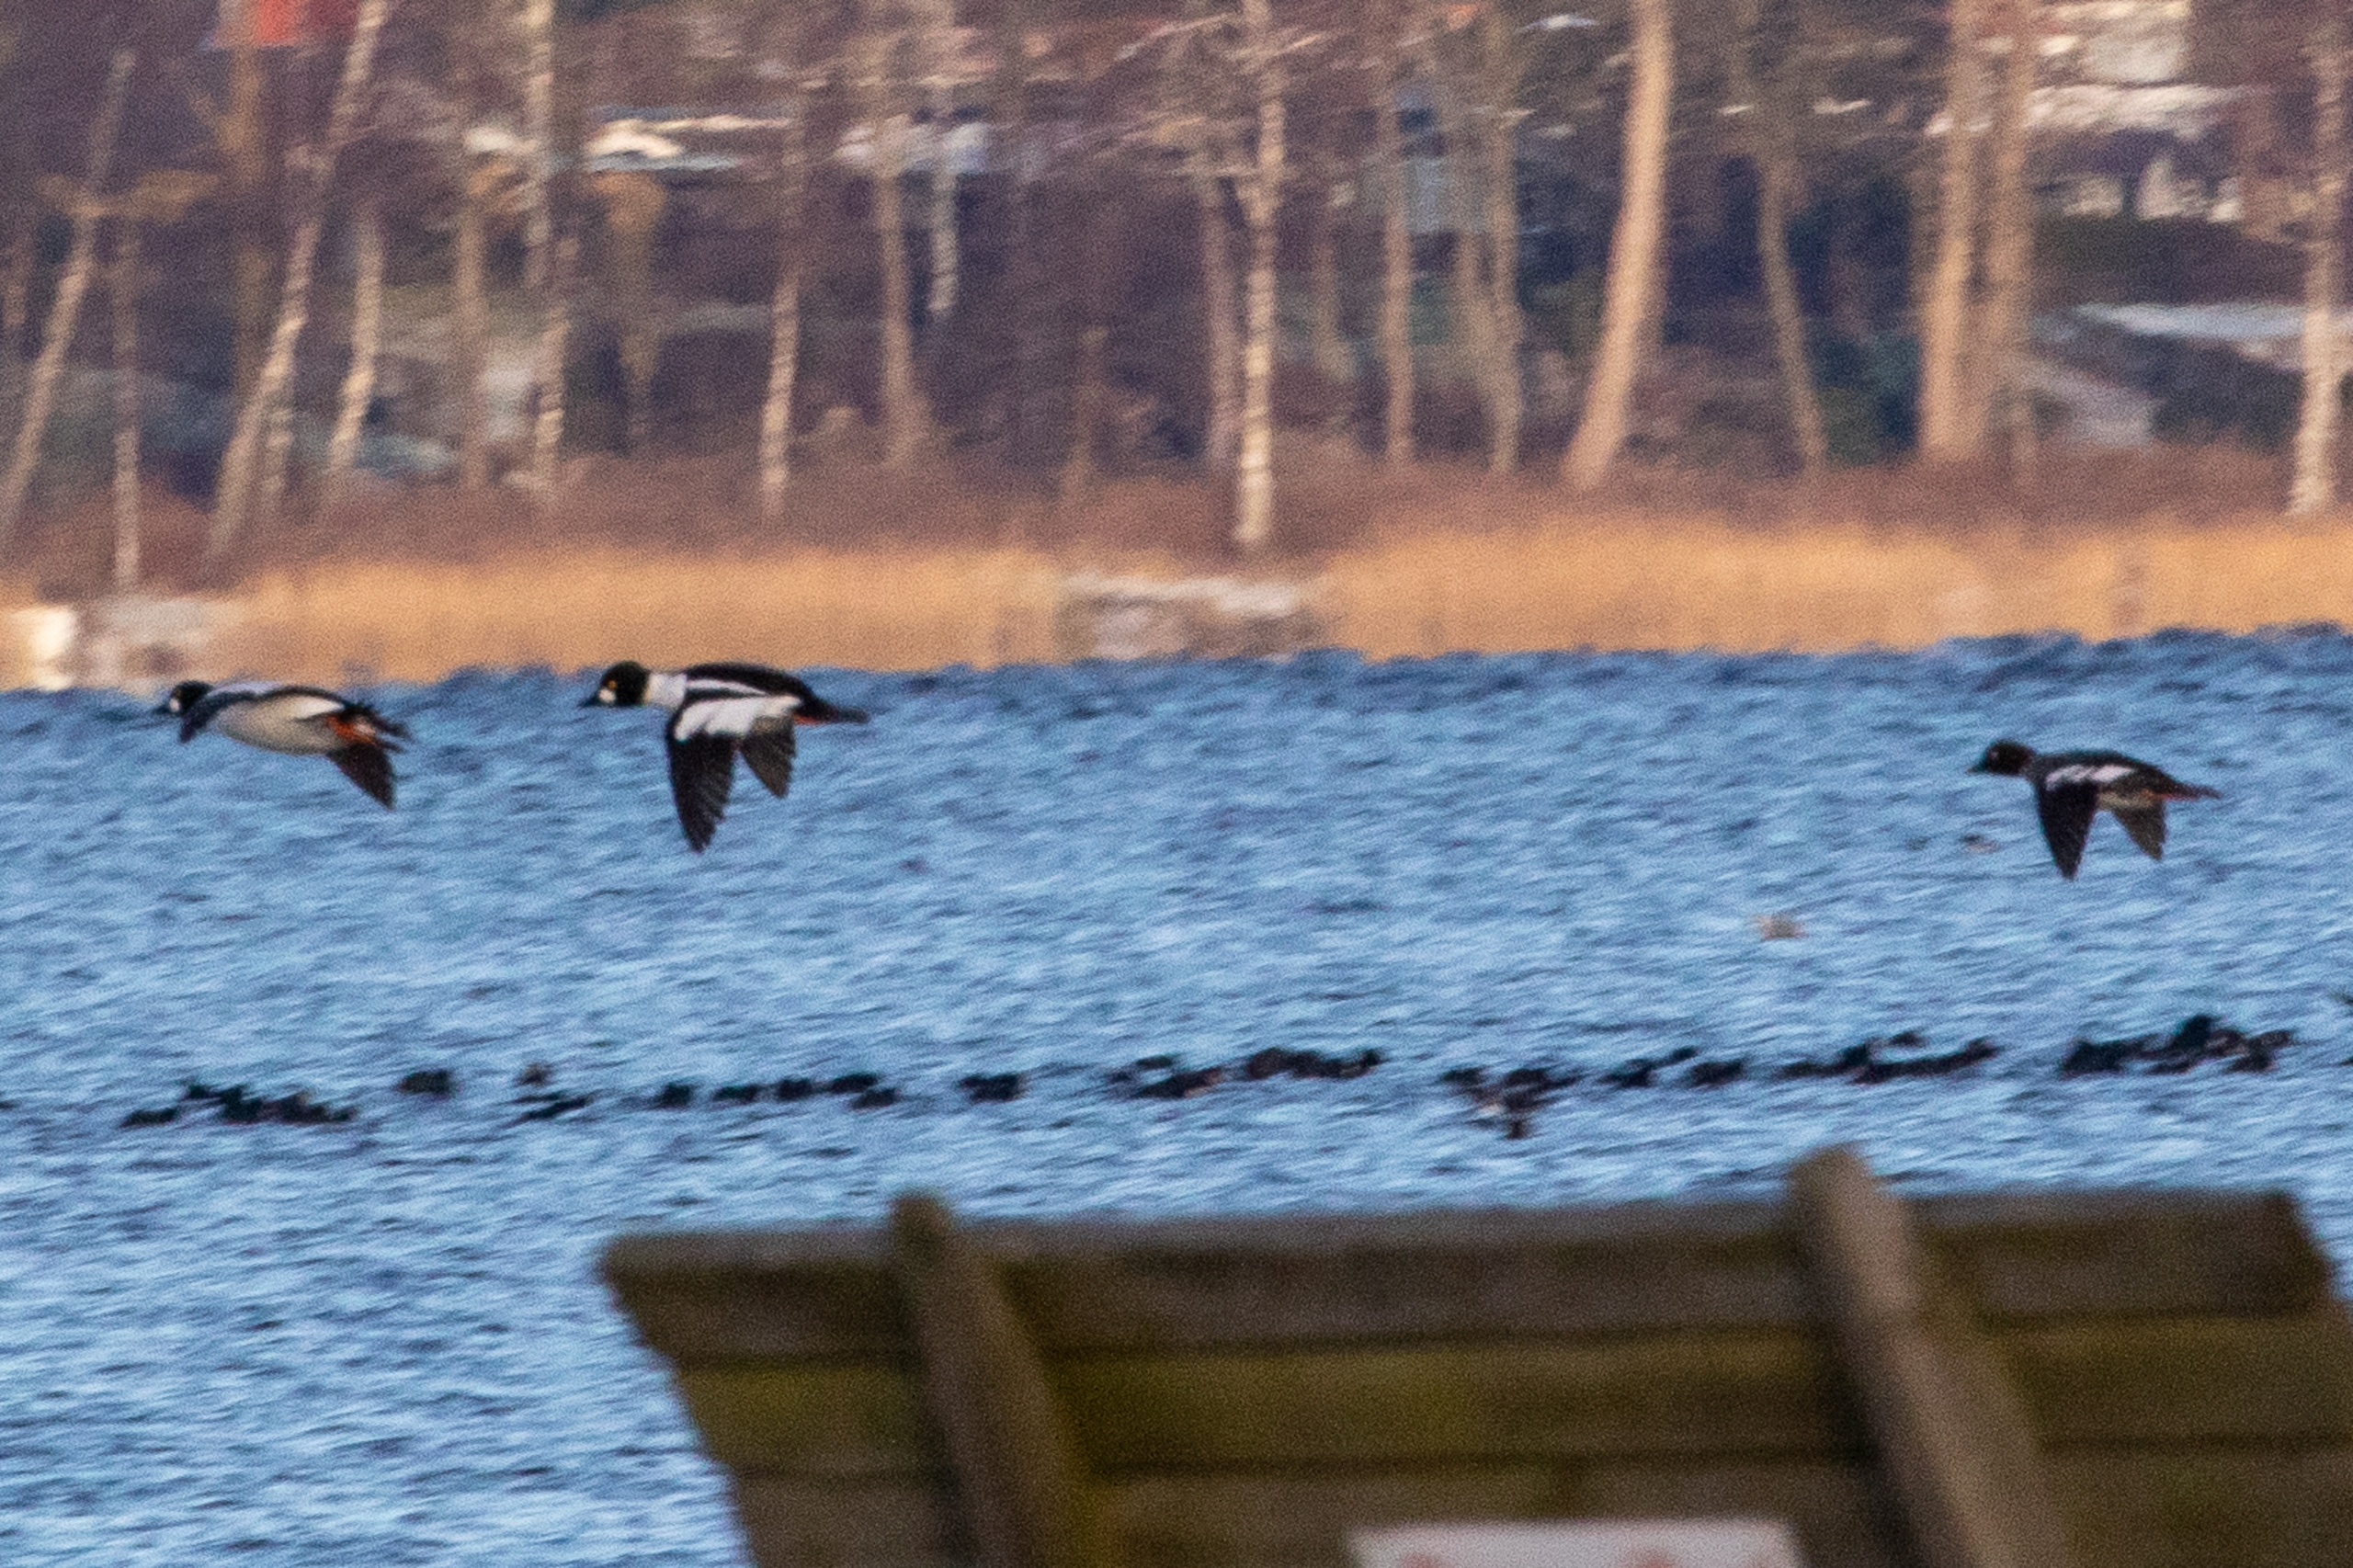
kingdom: Animalia
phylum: Chordata
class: Aves
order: Anseriformes
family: Anatidae
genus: Bucephala
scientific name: Bucephala clangula
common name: Hvinand
